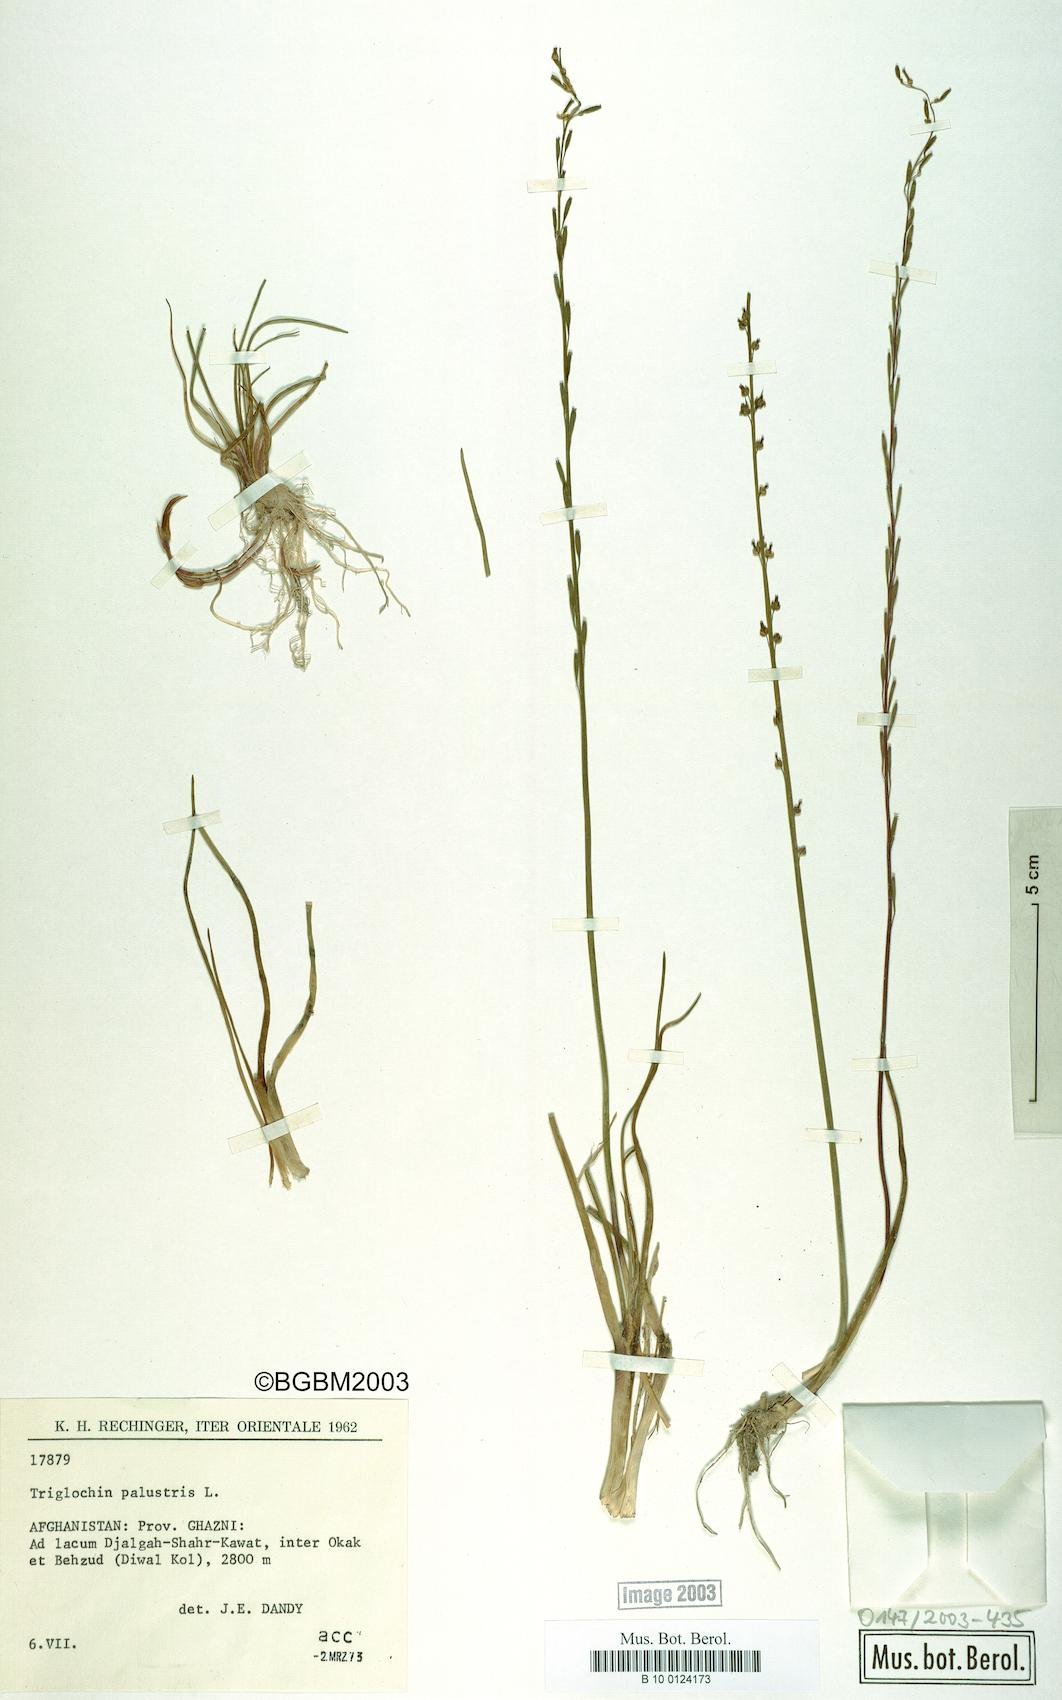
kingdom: Plantae
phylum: Tracheophyta
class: Liliopsida
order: Alismatales
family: Juncaginaceae
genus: Triglochin
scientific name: Triglochin palustris
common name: Marsh arrowgrass
